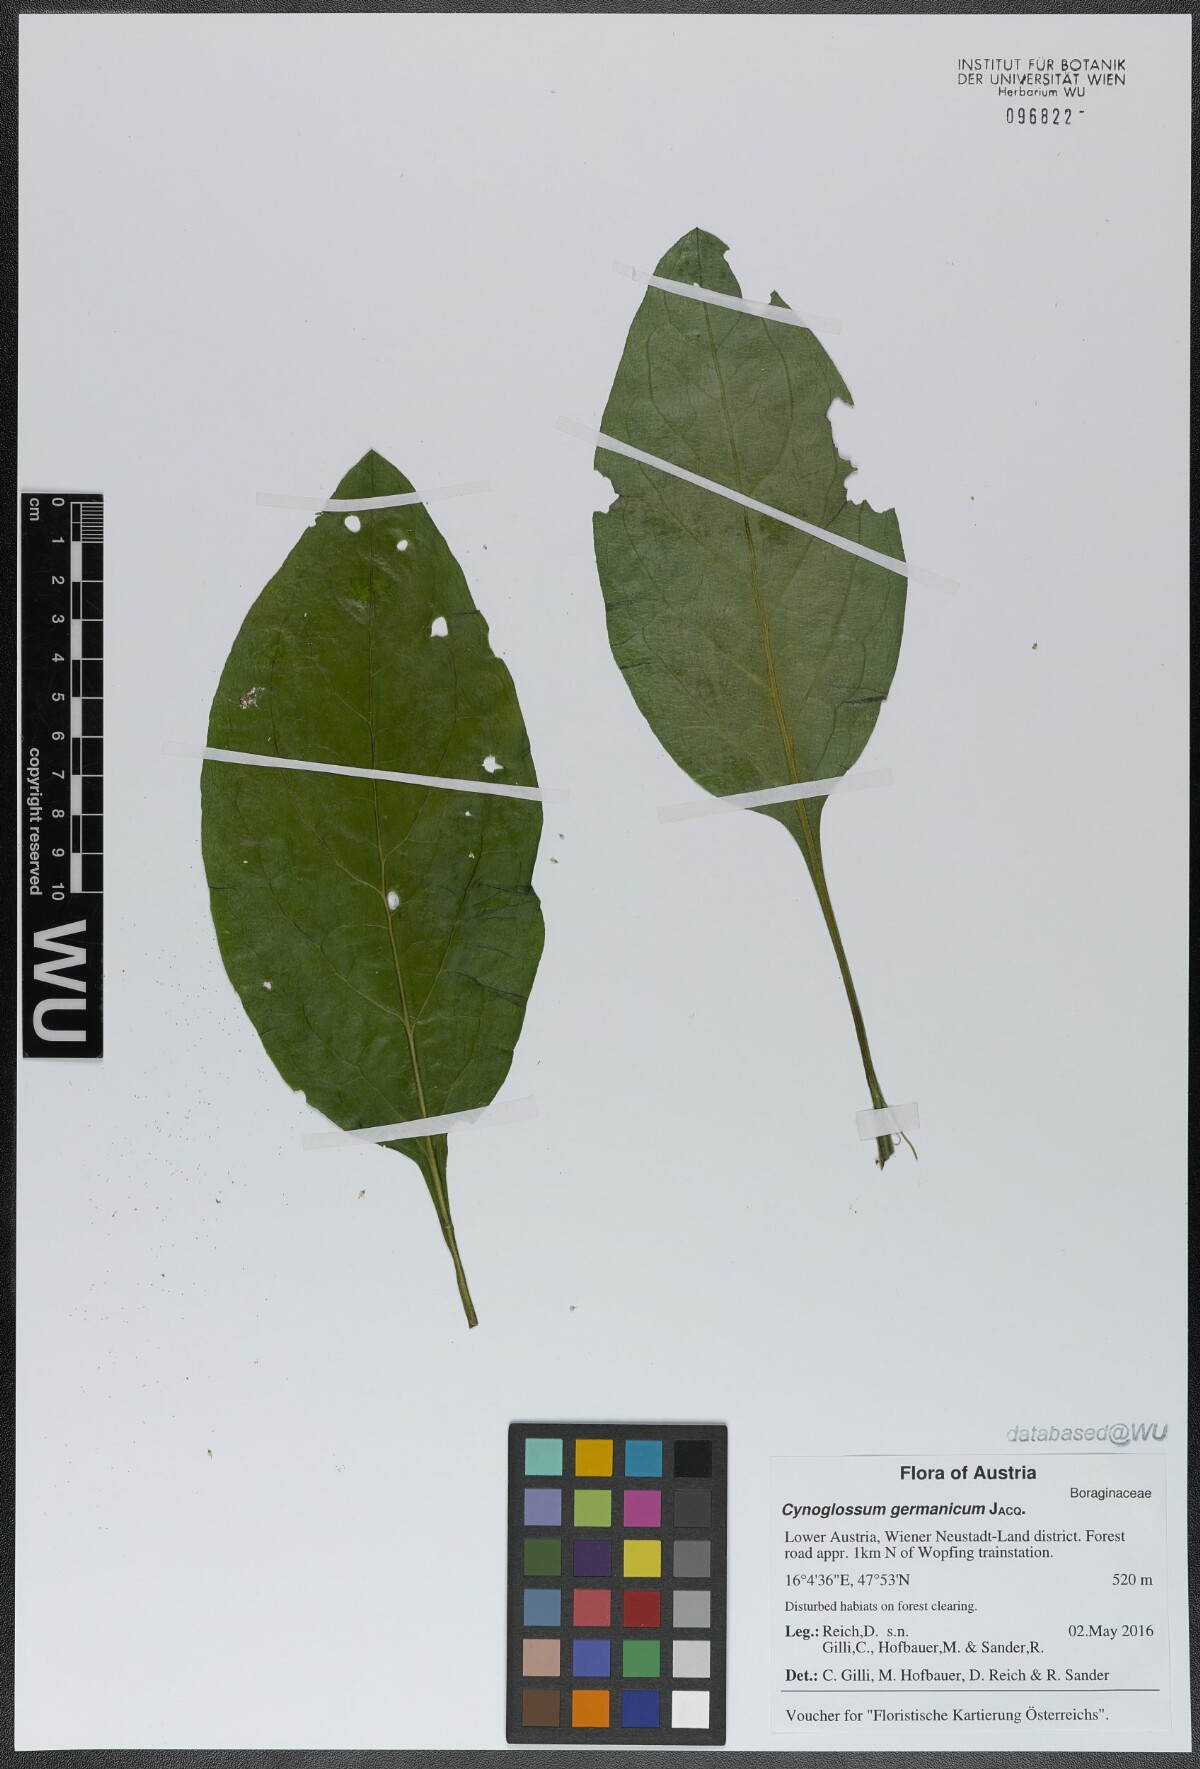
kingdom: Plantae
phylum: Tracheophyta
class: Magnoliopsida
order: Boraginales
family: Boraginaceae
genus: Cynoglossum
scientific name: Cynoglossum germanicum
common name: Green hound's-tongue
